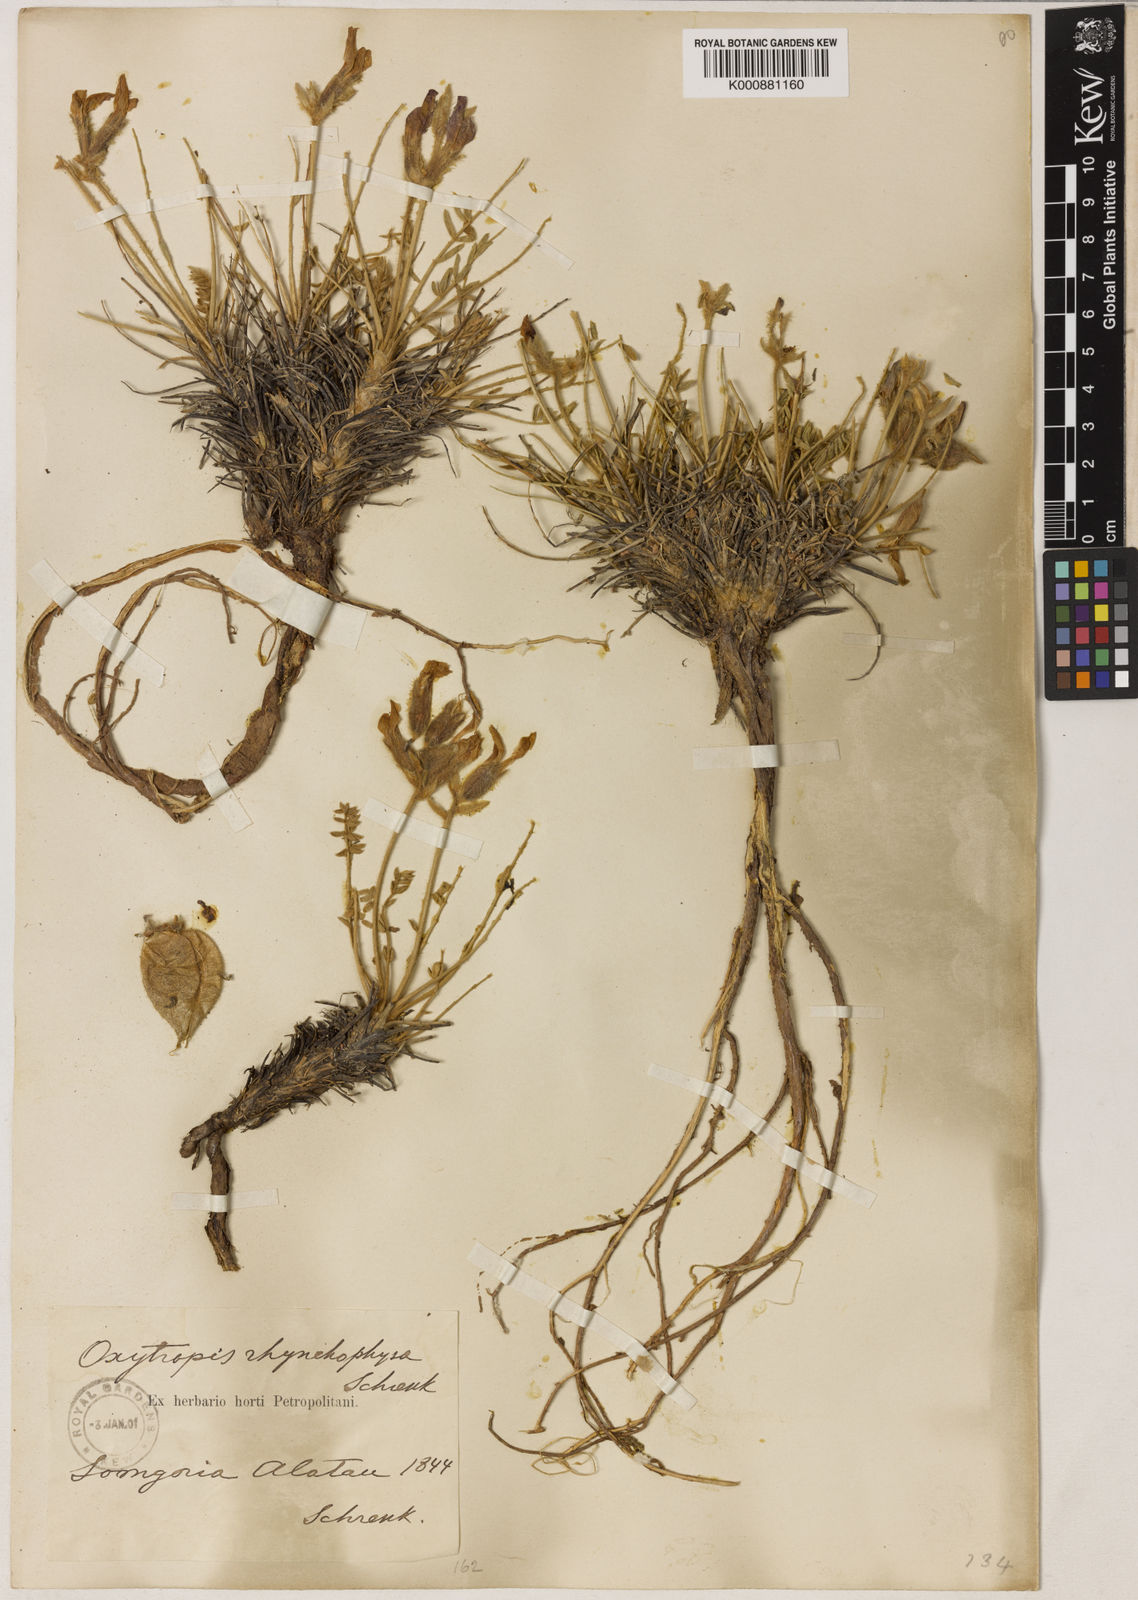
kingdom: Plantae
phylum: Tracheophyta
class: Magnoliopsida
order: Fabales
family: Fabaceae
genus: Oxytropis
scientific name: Oxytropis rhynchophysa
